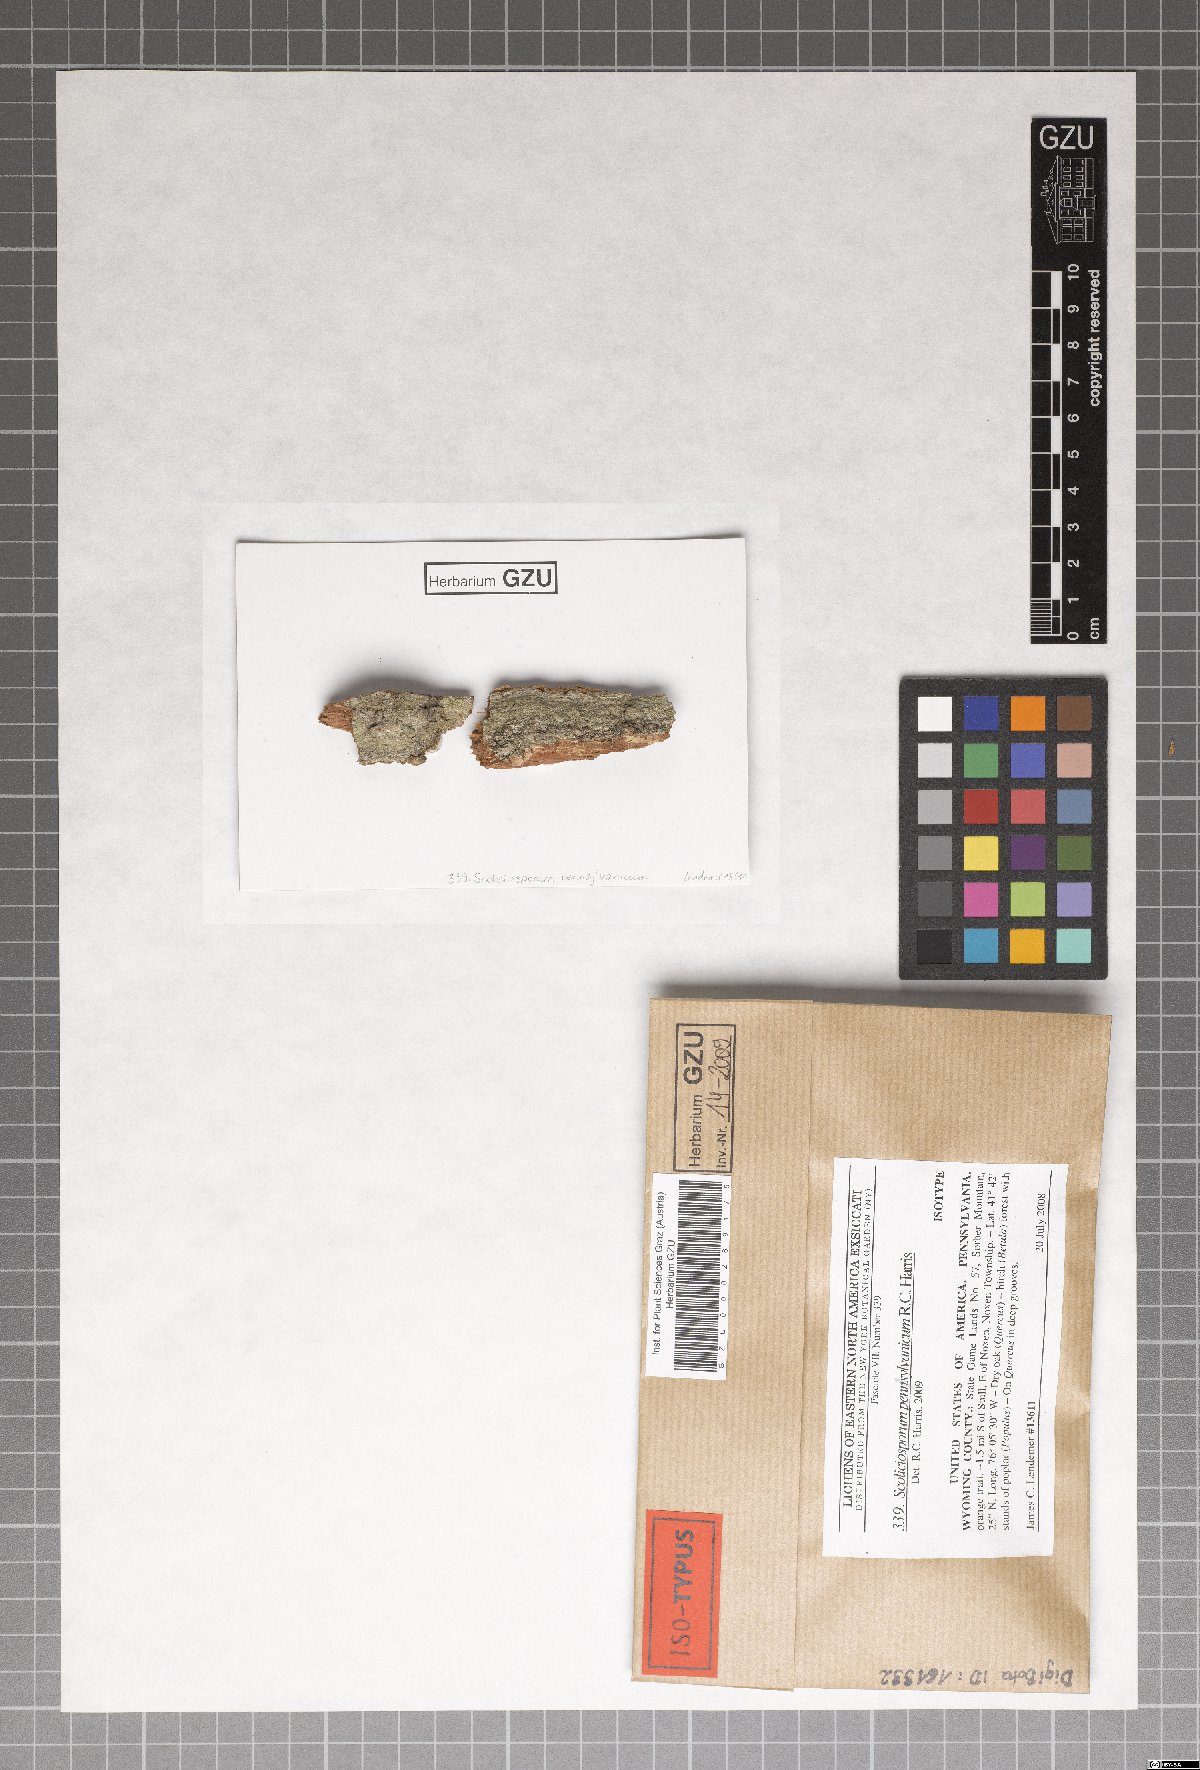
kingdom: Fungi
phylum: Ascomycota
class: Lecanoromycetes
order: Lecanorales
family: Scoliciosporaceae
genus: Scoliciosporum
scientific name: Scoliciosporum pensylvanicum
